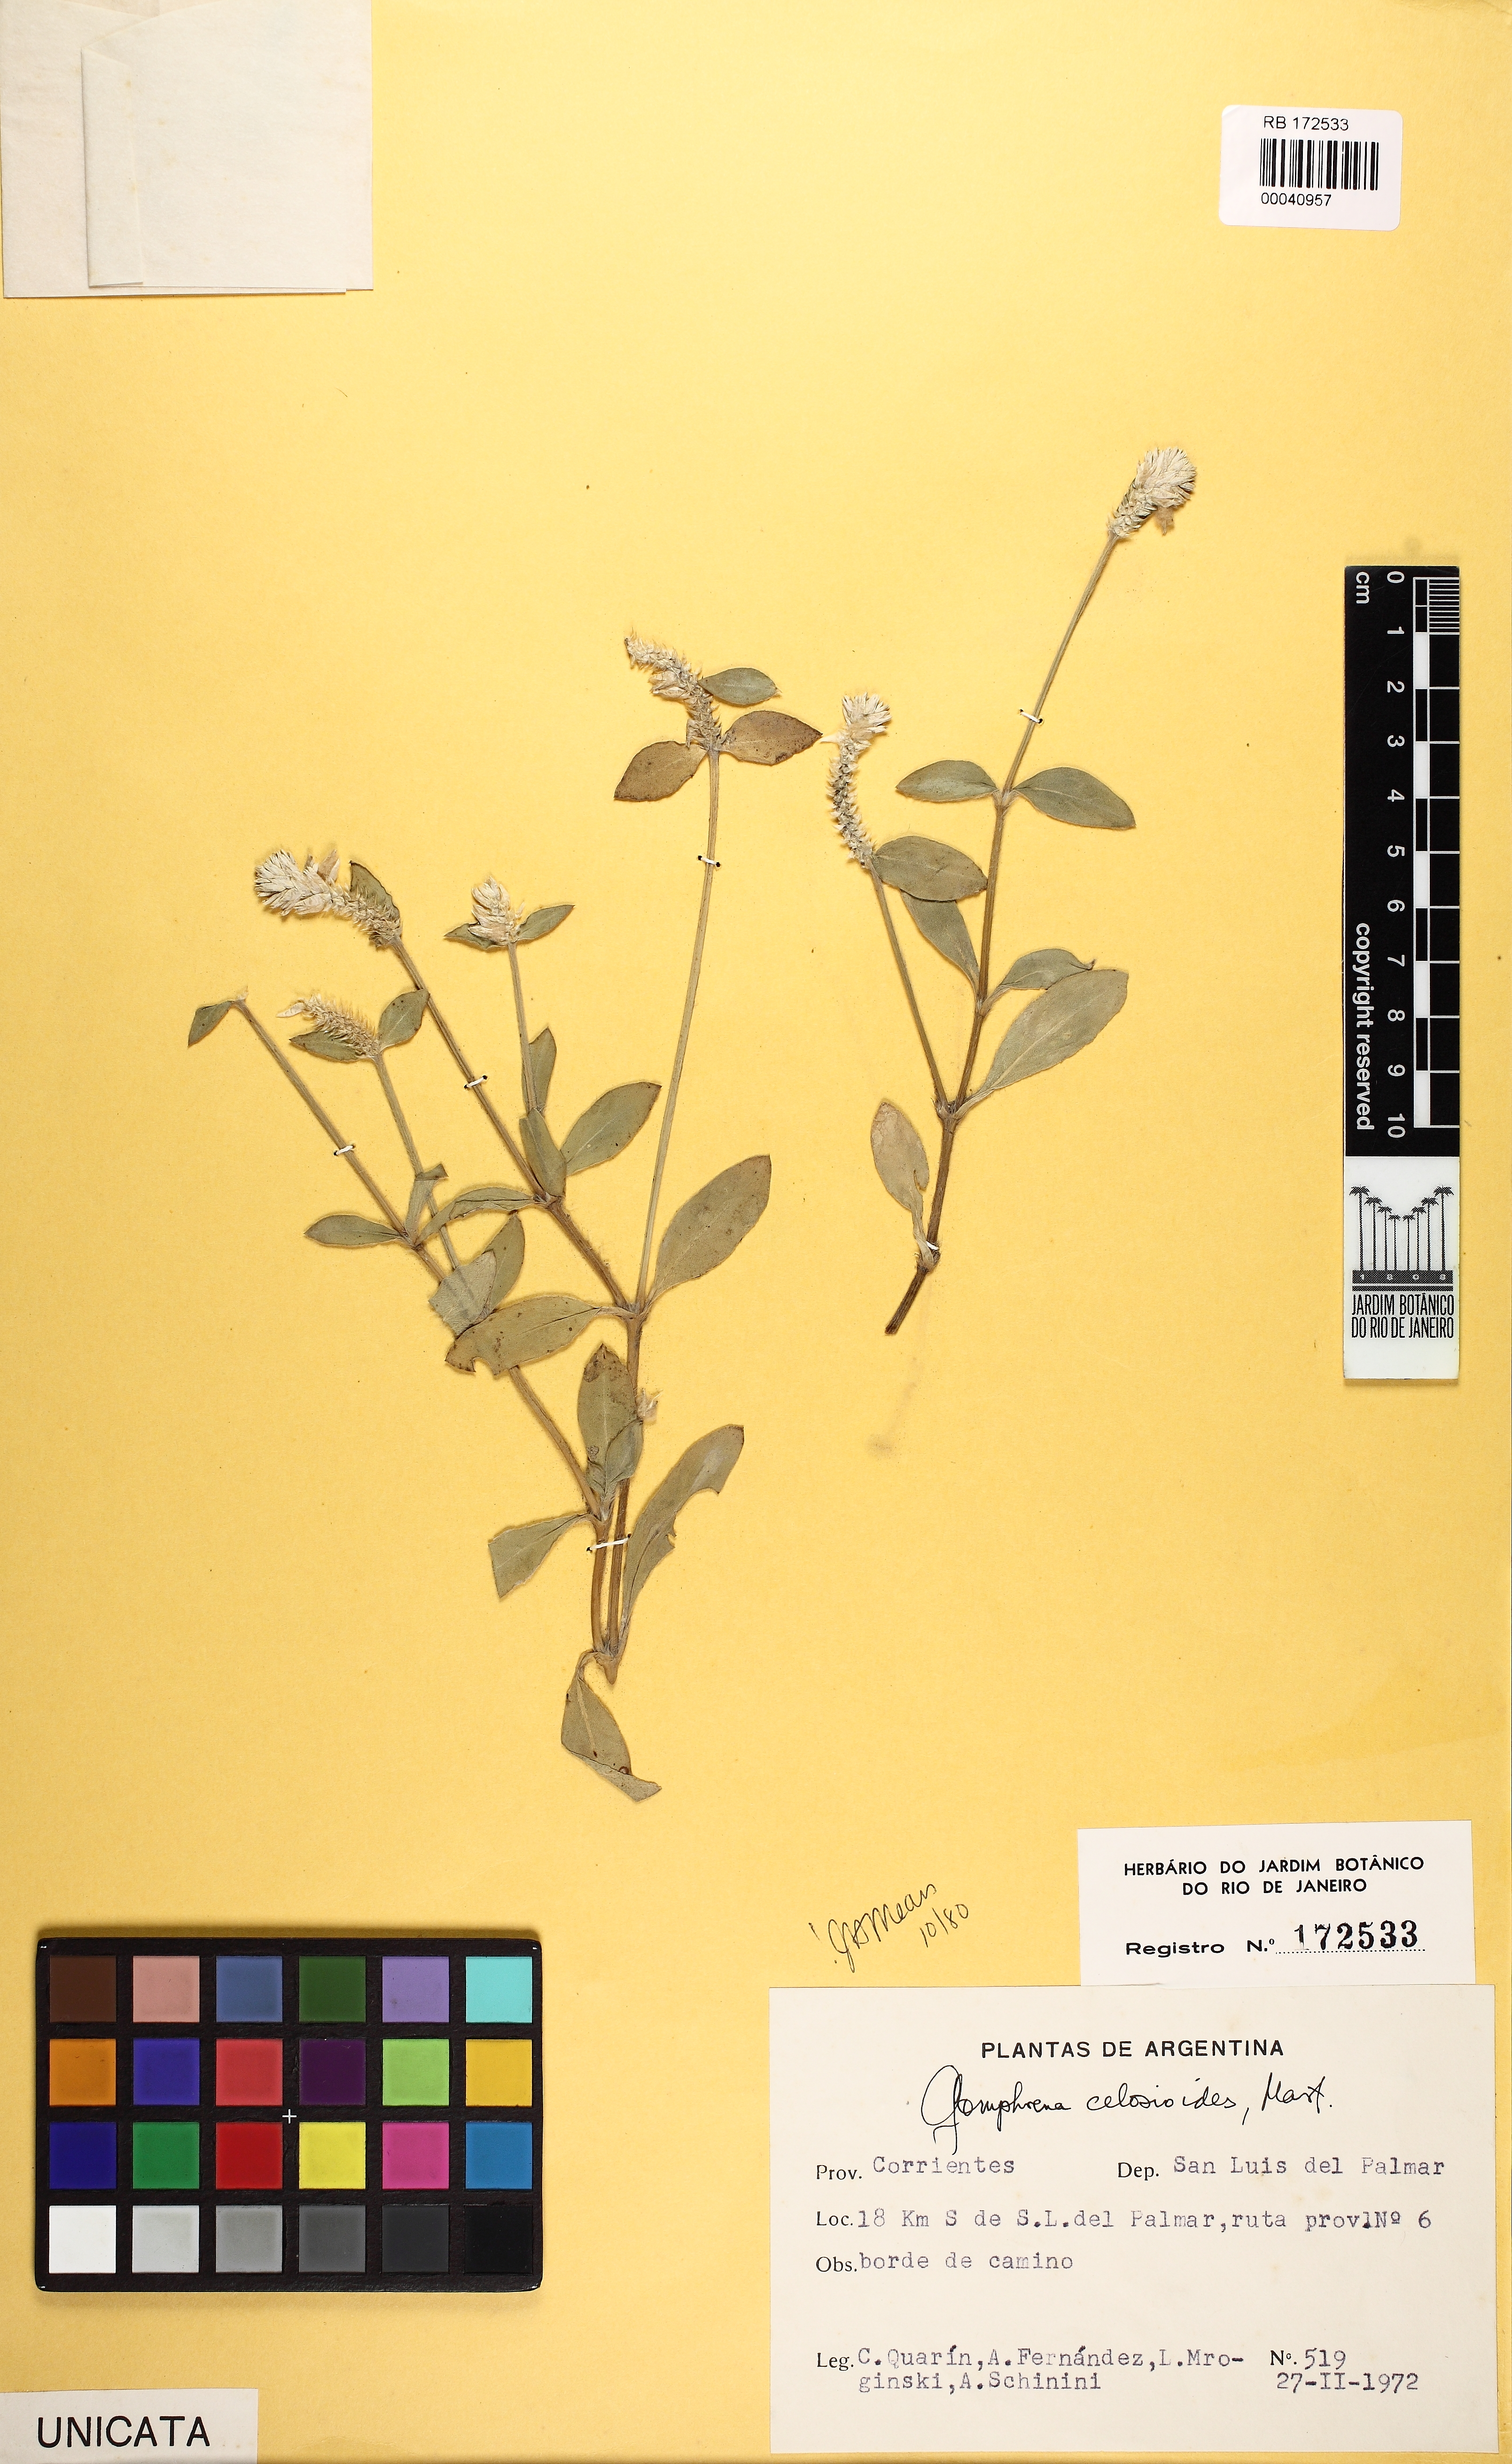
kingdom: Plantae
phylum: Tracheophyta
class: Magnoliopsida
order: Caryophyllales
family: Amaranthaceae
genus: Gomphrena
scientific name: Gomphrena colosacana
